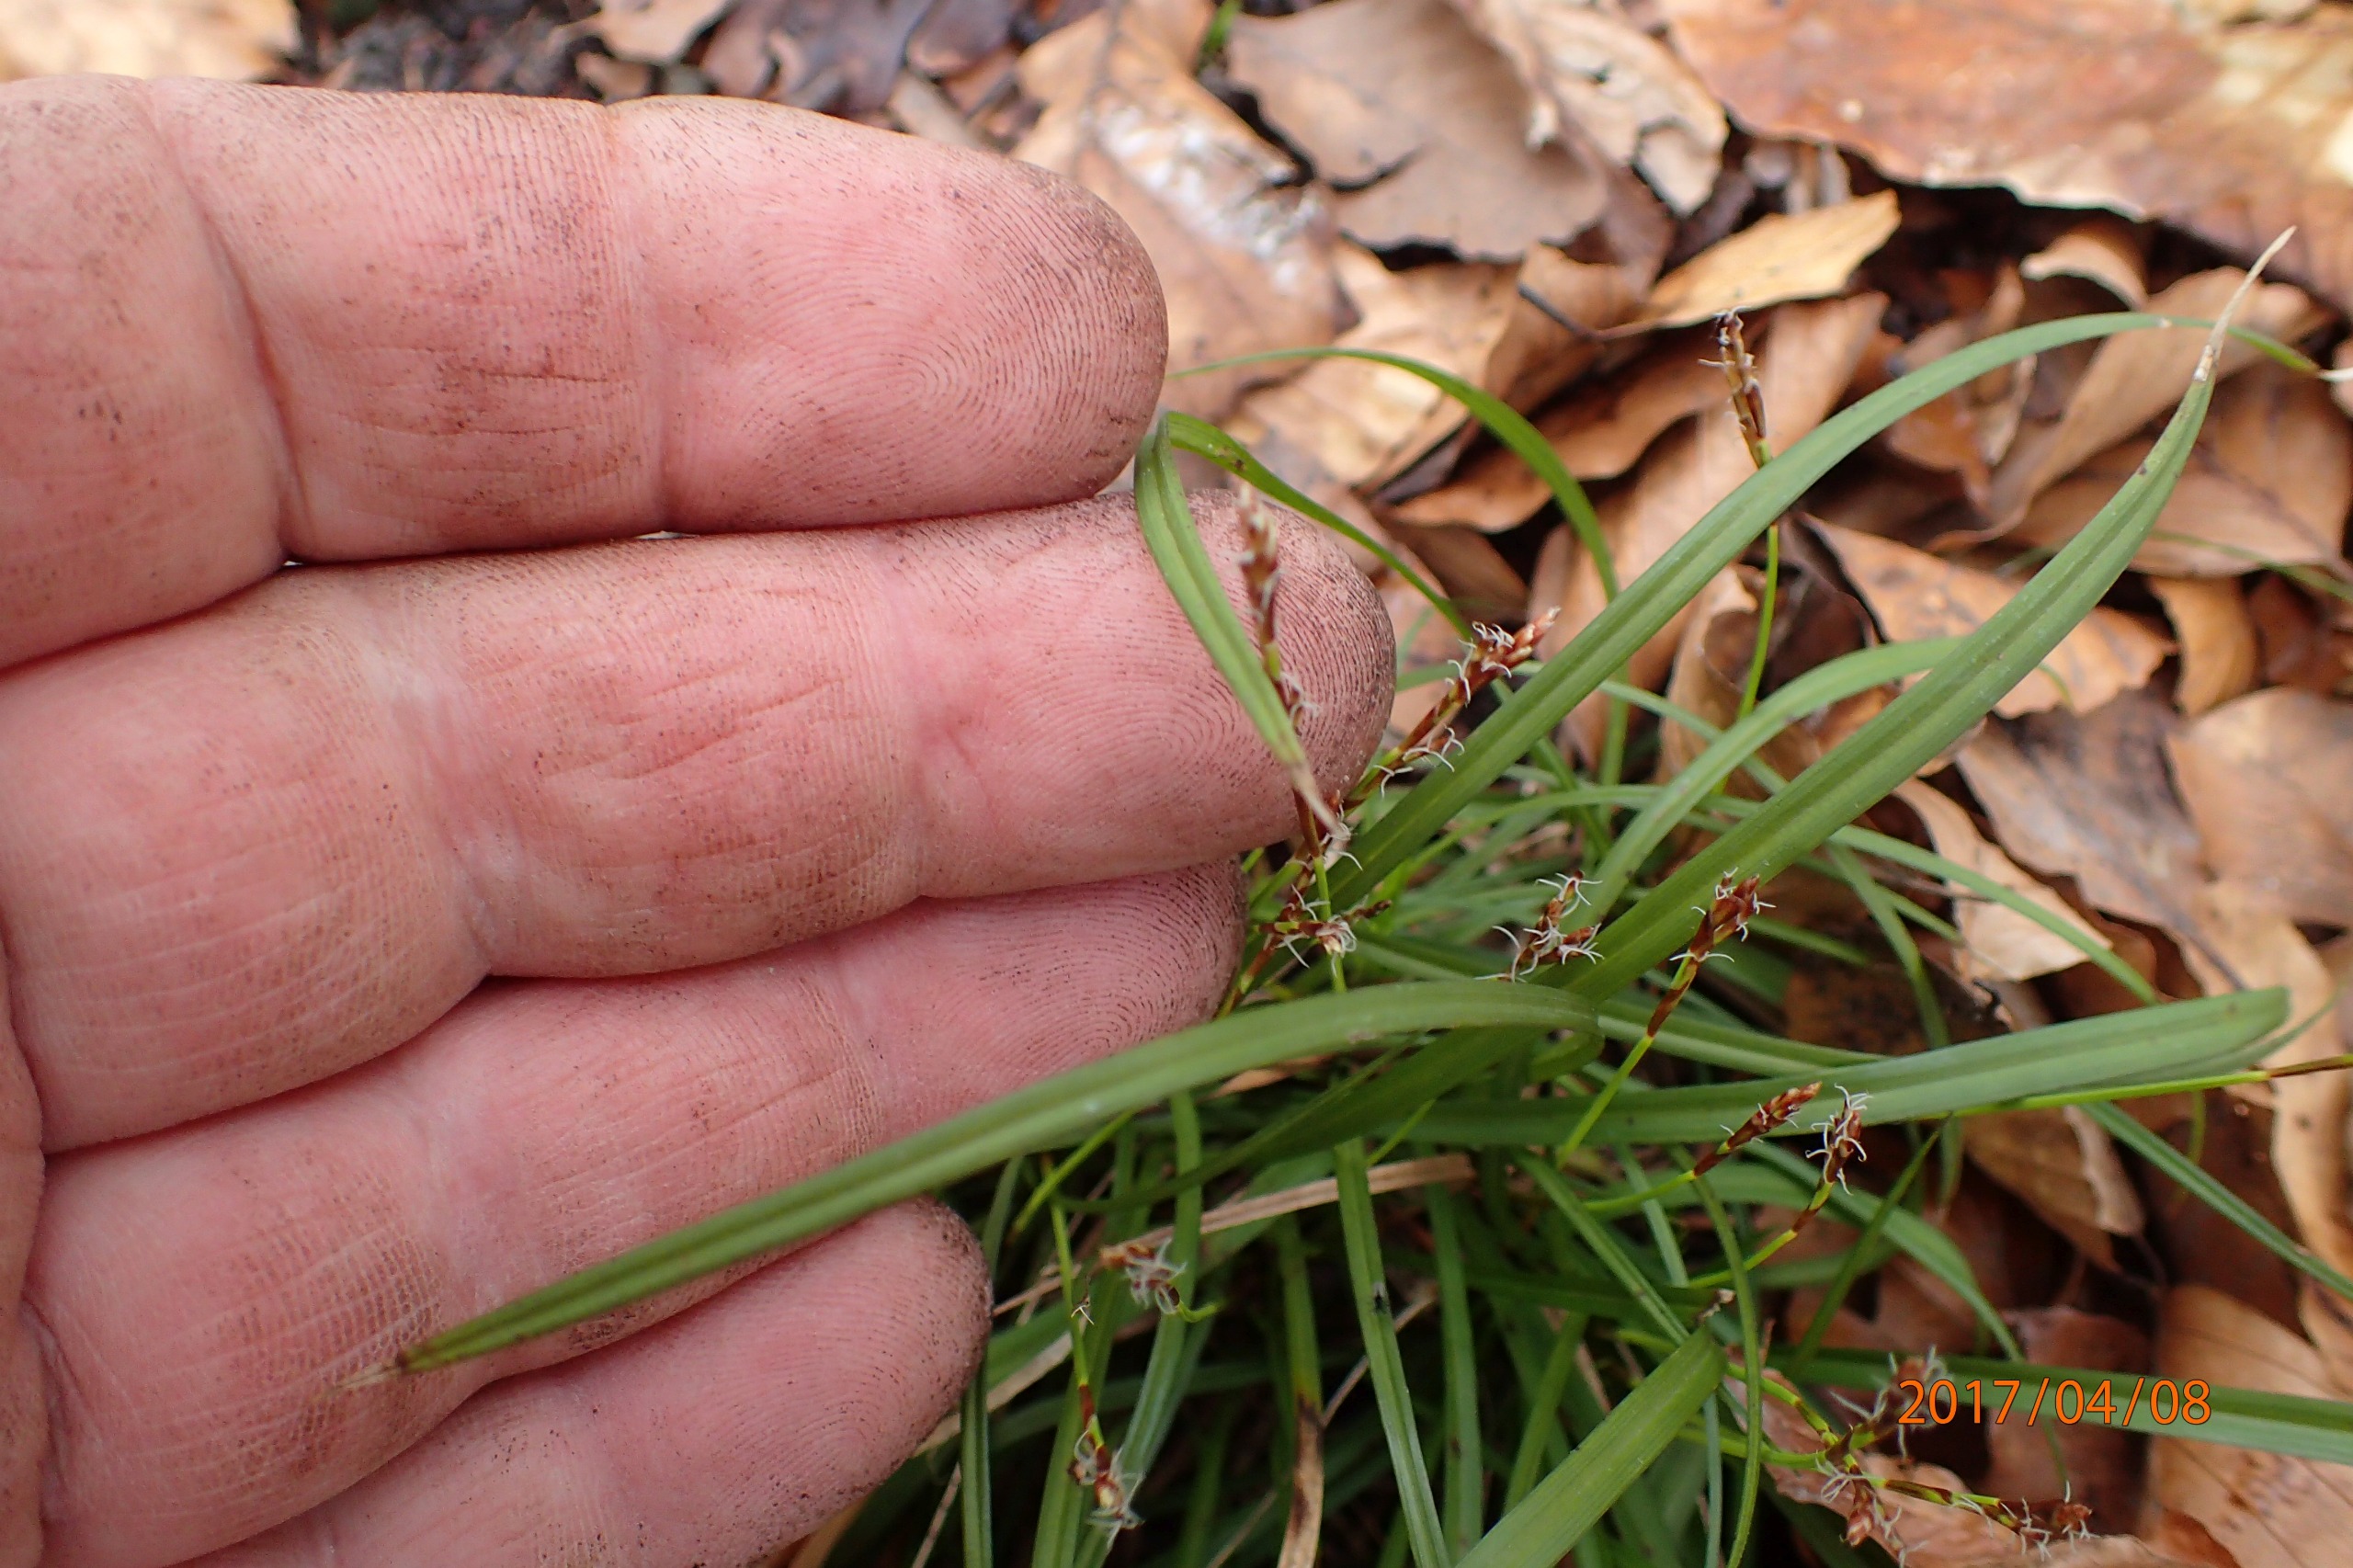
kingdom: Plantae
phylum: Tracheophyta
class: Liliopsida
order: Poales
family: Cyperaceae
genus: Carex
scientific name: Carex digitata
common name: Finger-star
